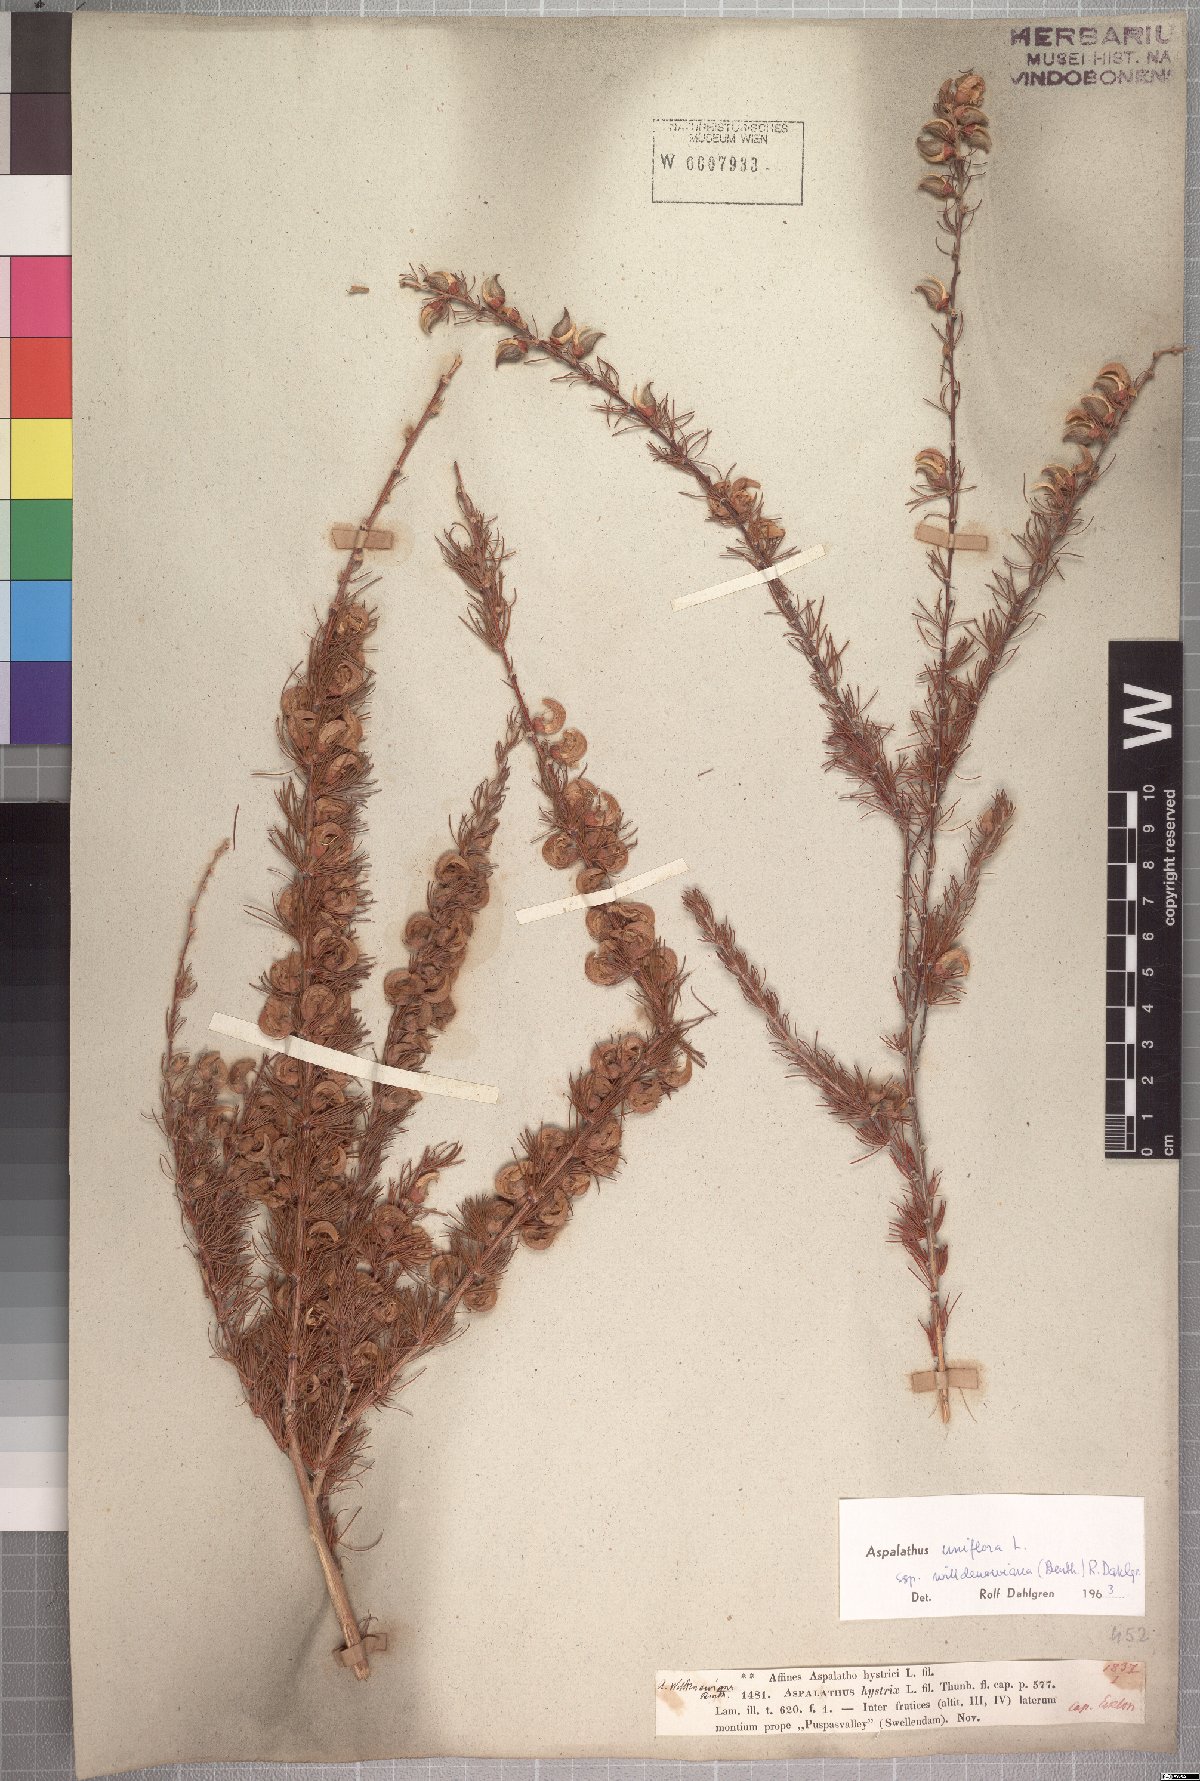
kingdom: Plantae
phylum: Tracheophyta
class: Magnoliopsida
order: Fabales
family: Fabaceae
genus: Aspalathus
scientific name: Aspalathus willdenowiana
